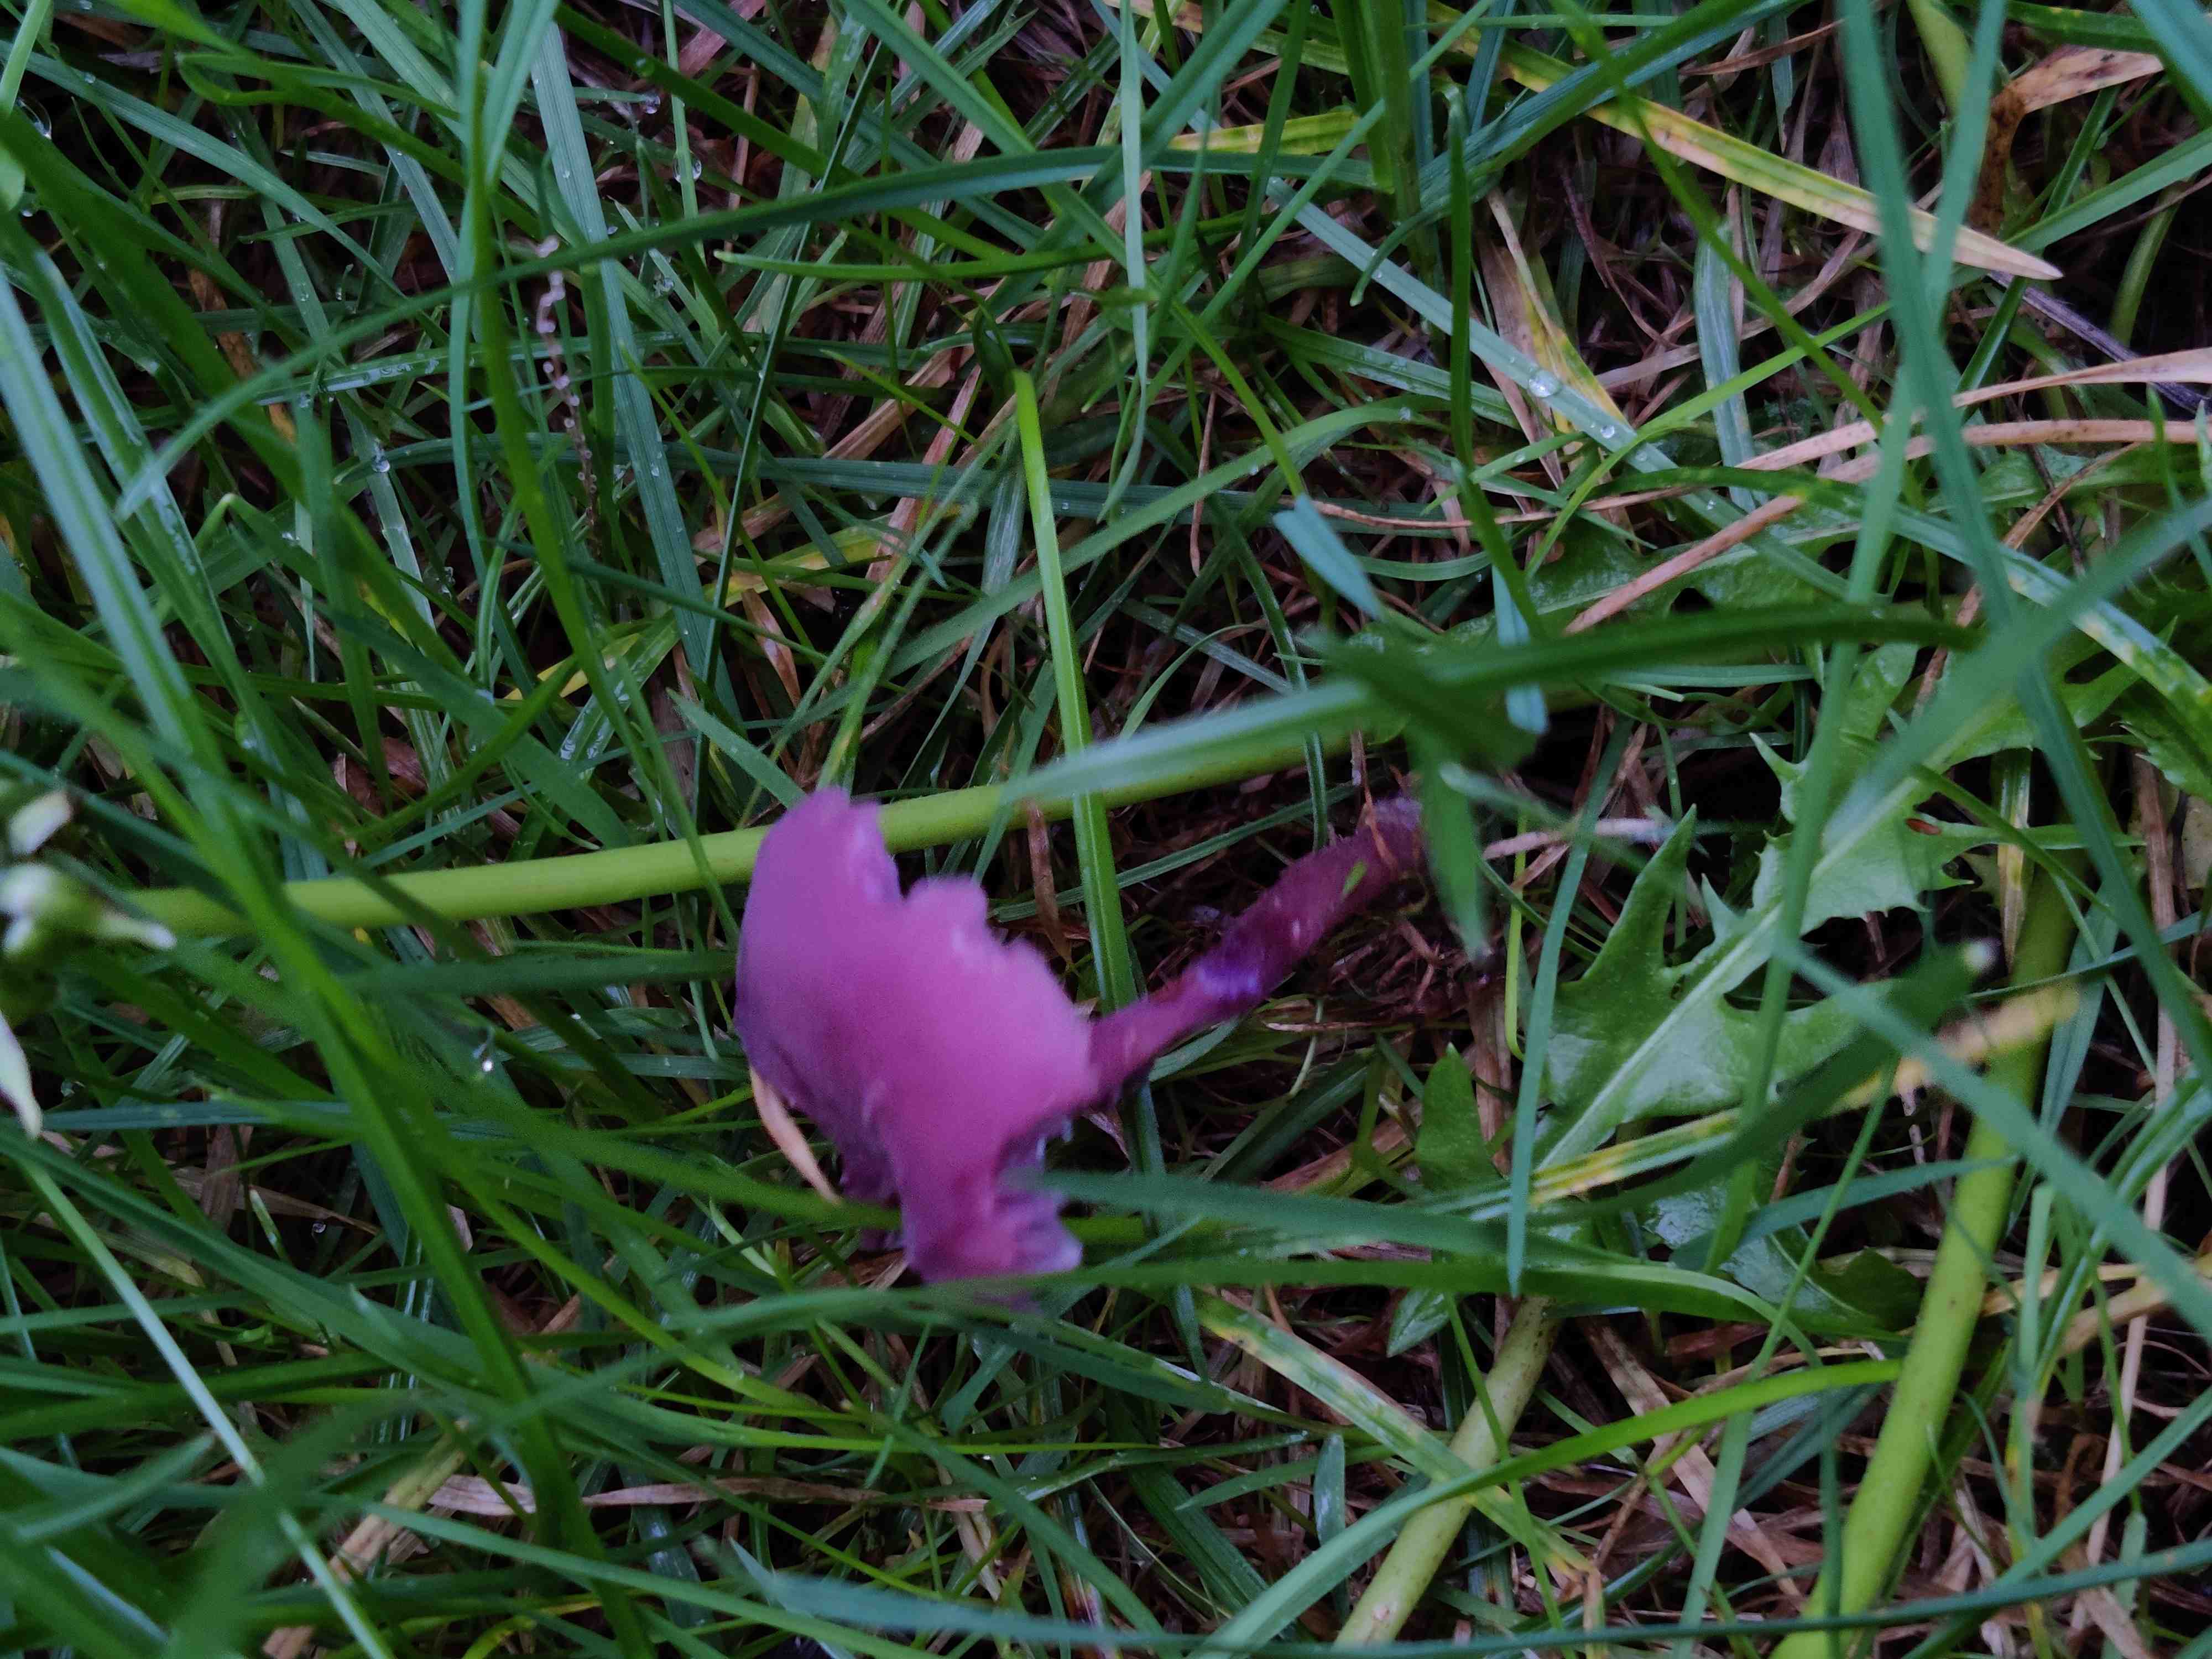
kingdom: Fungi
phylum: Basidiomycota
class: Agaricomycetes
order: Agaricales
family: Hydnangiaceae
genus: Laccaria
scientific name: Laccaria amethystina
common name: violet ametysthat
